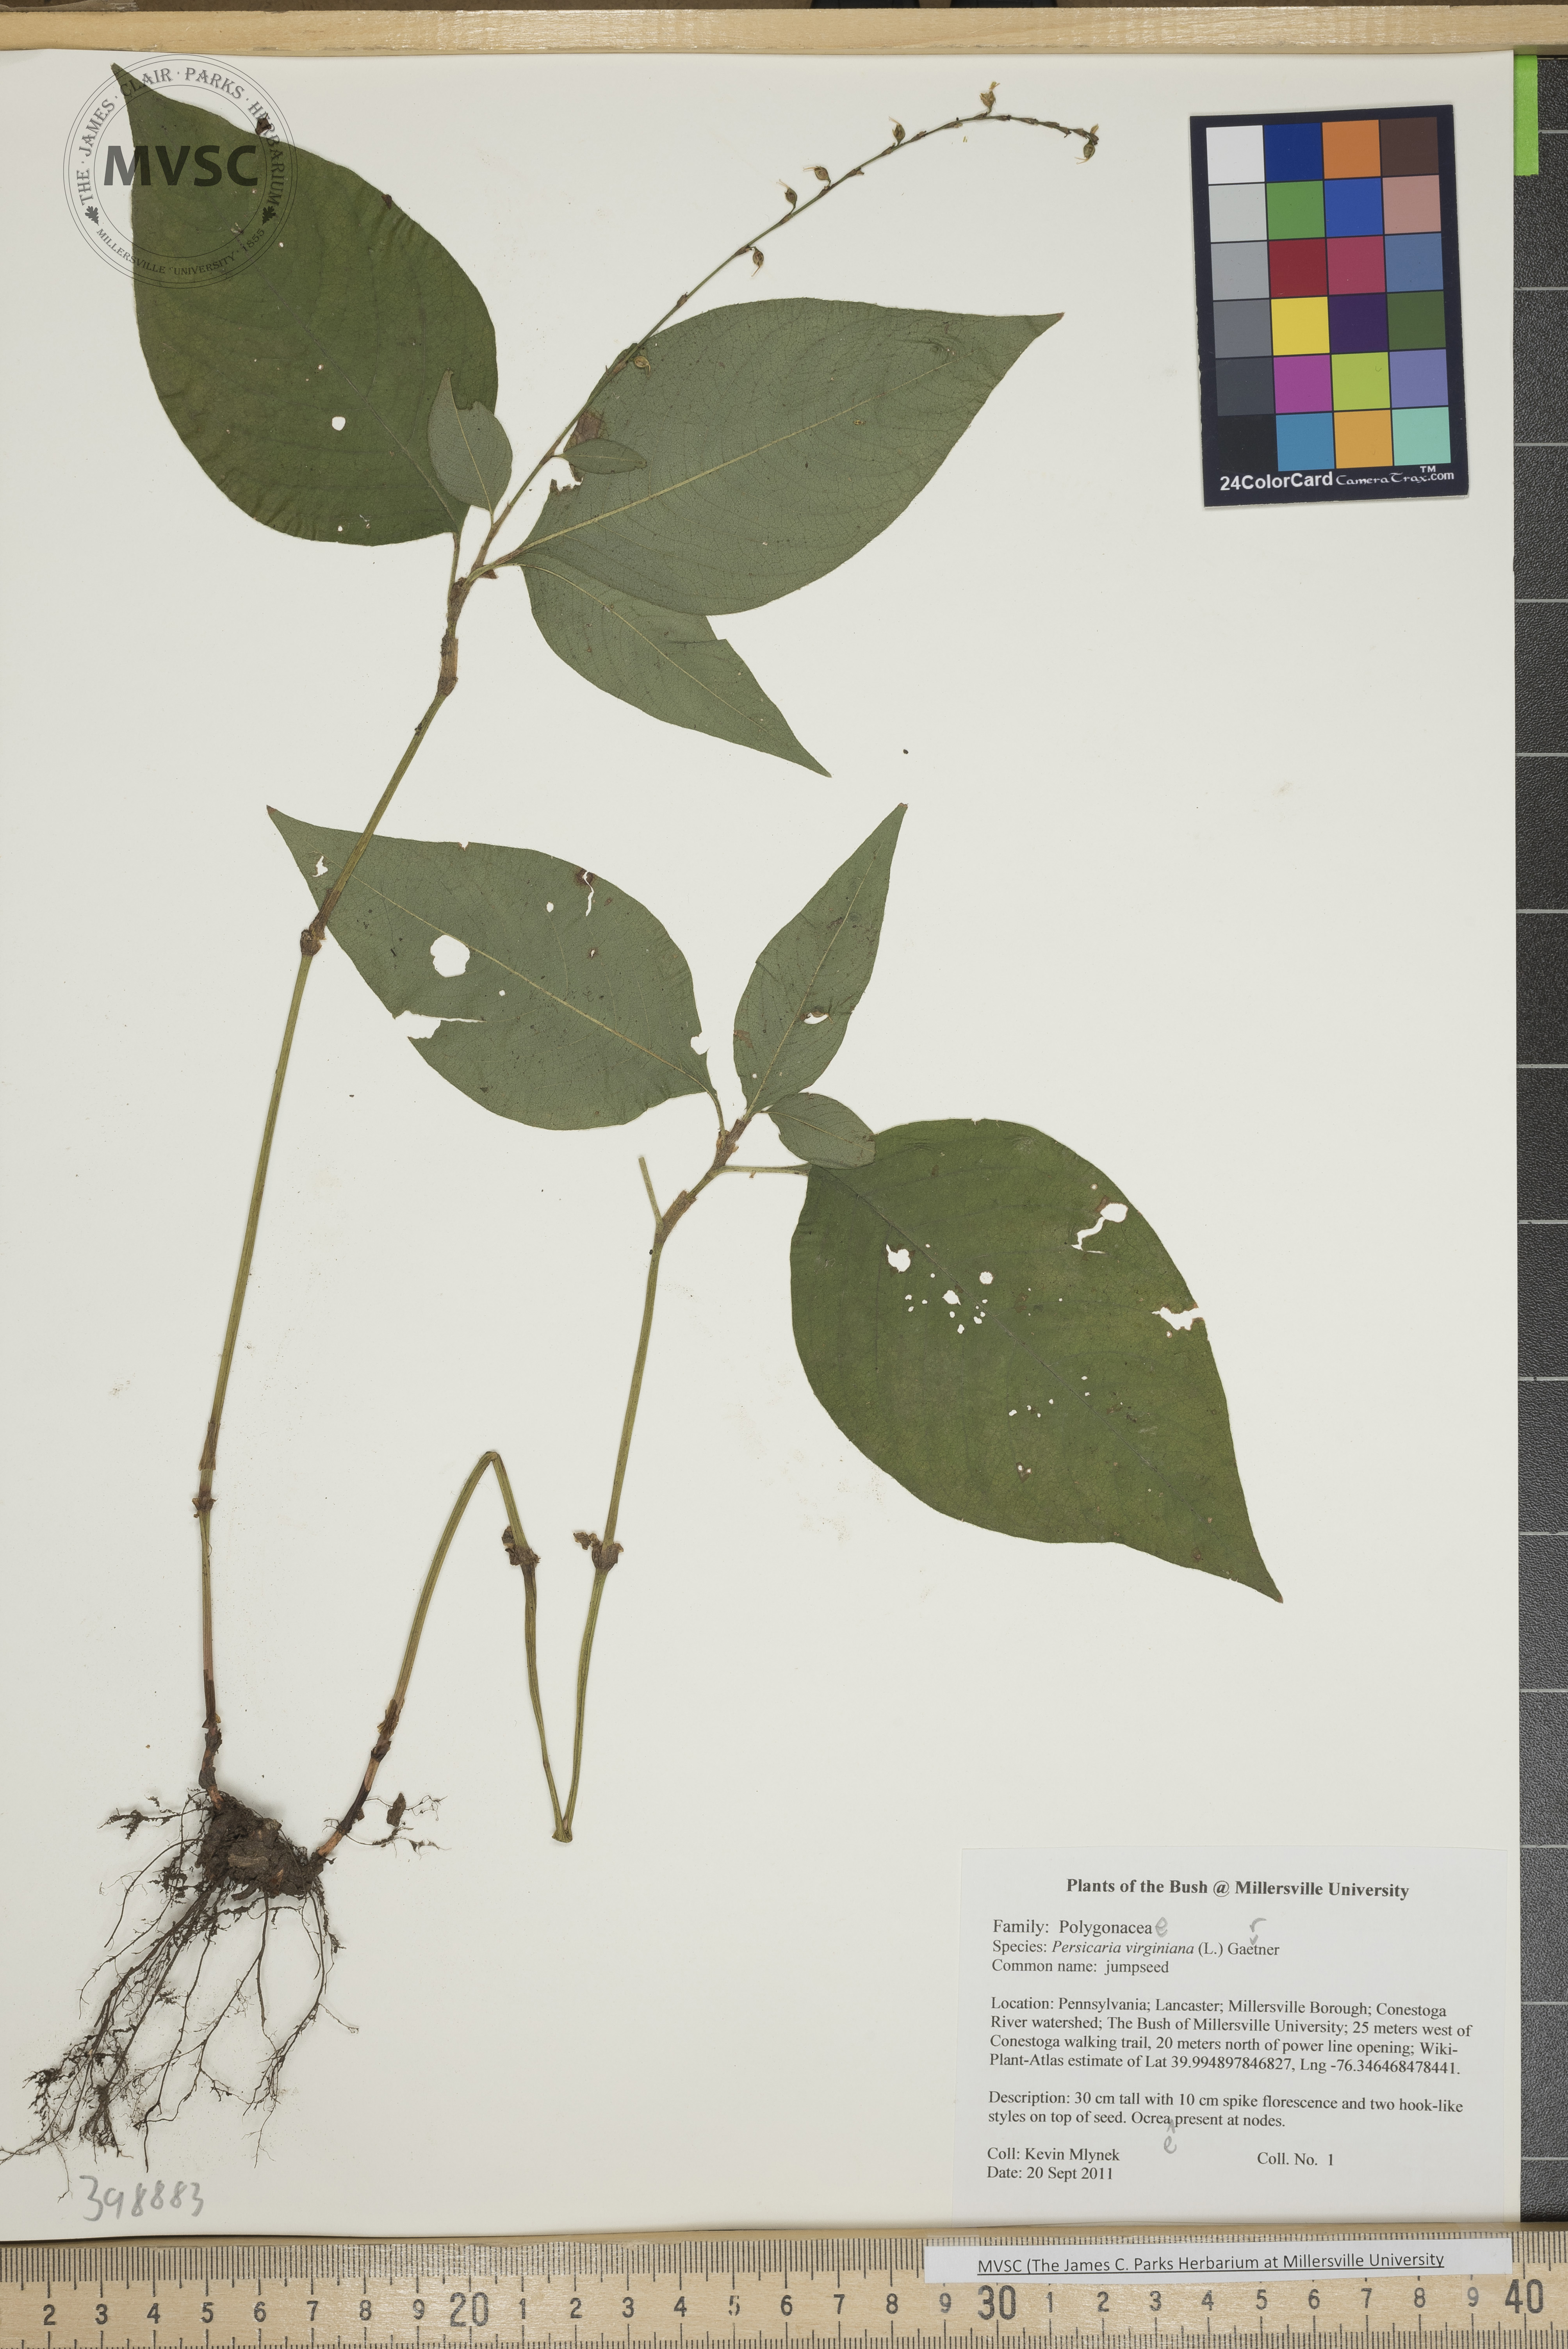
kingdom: Plantae
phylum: Tracheophyta
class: Magnoliopsida
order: Caryophyllales
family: Polygonaceae
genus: Persicaria
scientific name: Persicaria virginiana
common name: Jumpseed
